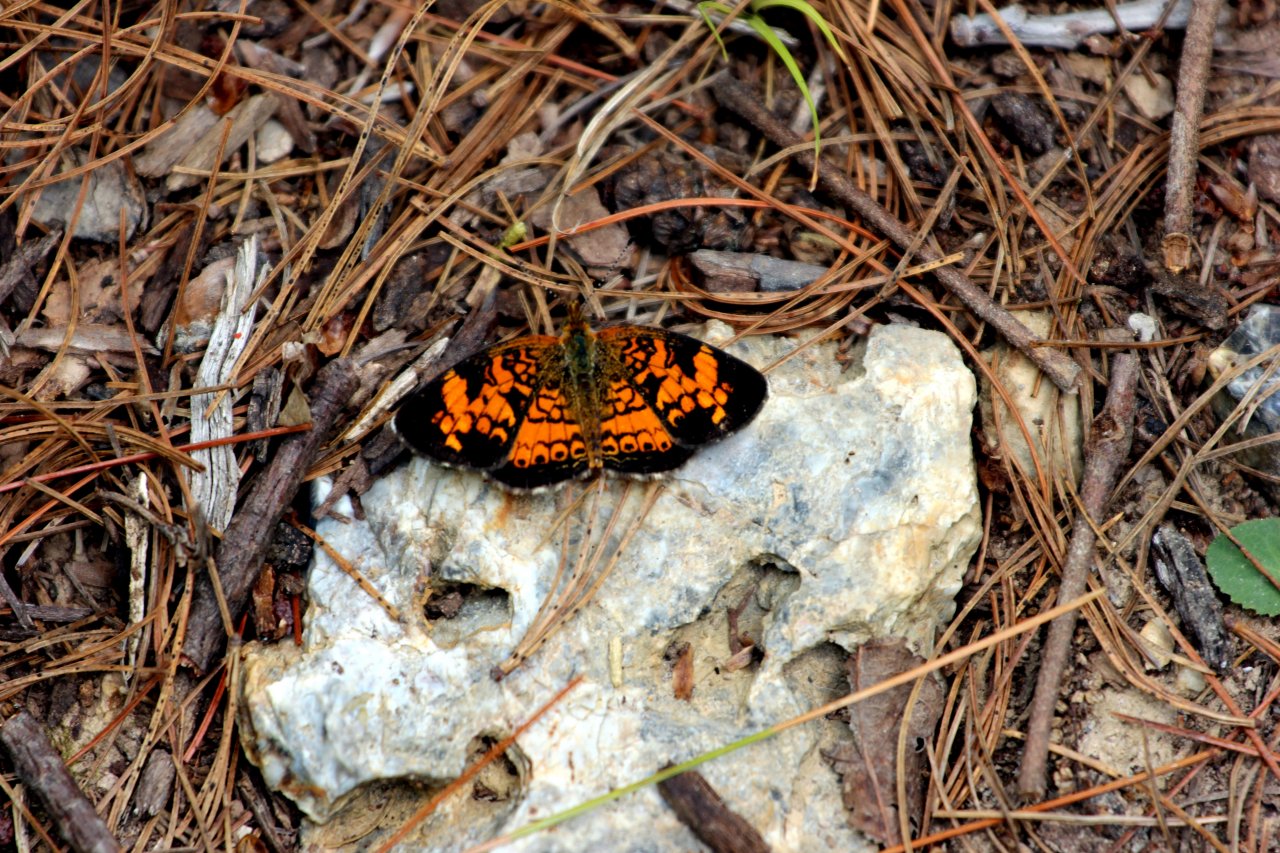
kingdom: Animalia
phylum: Arthropoda
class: Insecta
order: Lepidoptera
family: Nymphalidae
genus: Phyciodes
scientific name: Phyciodes tharos
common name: Pearl Crescent
